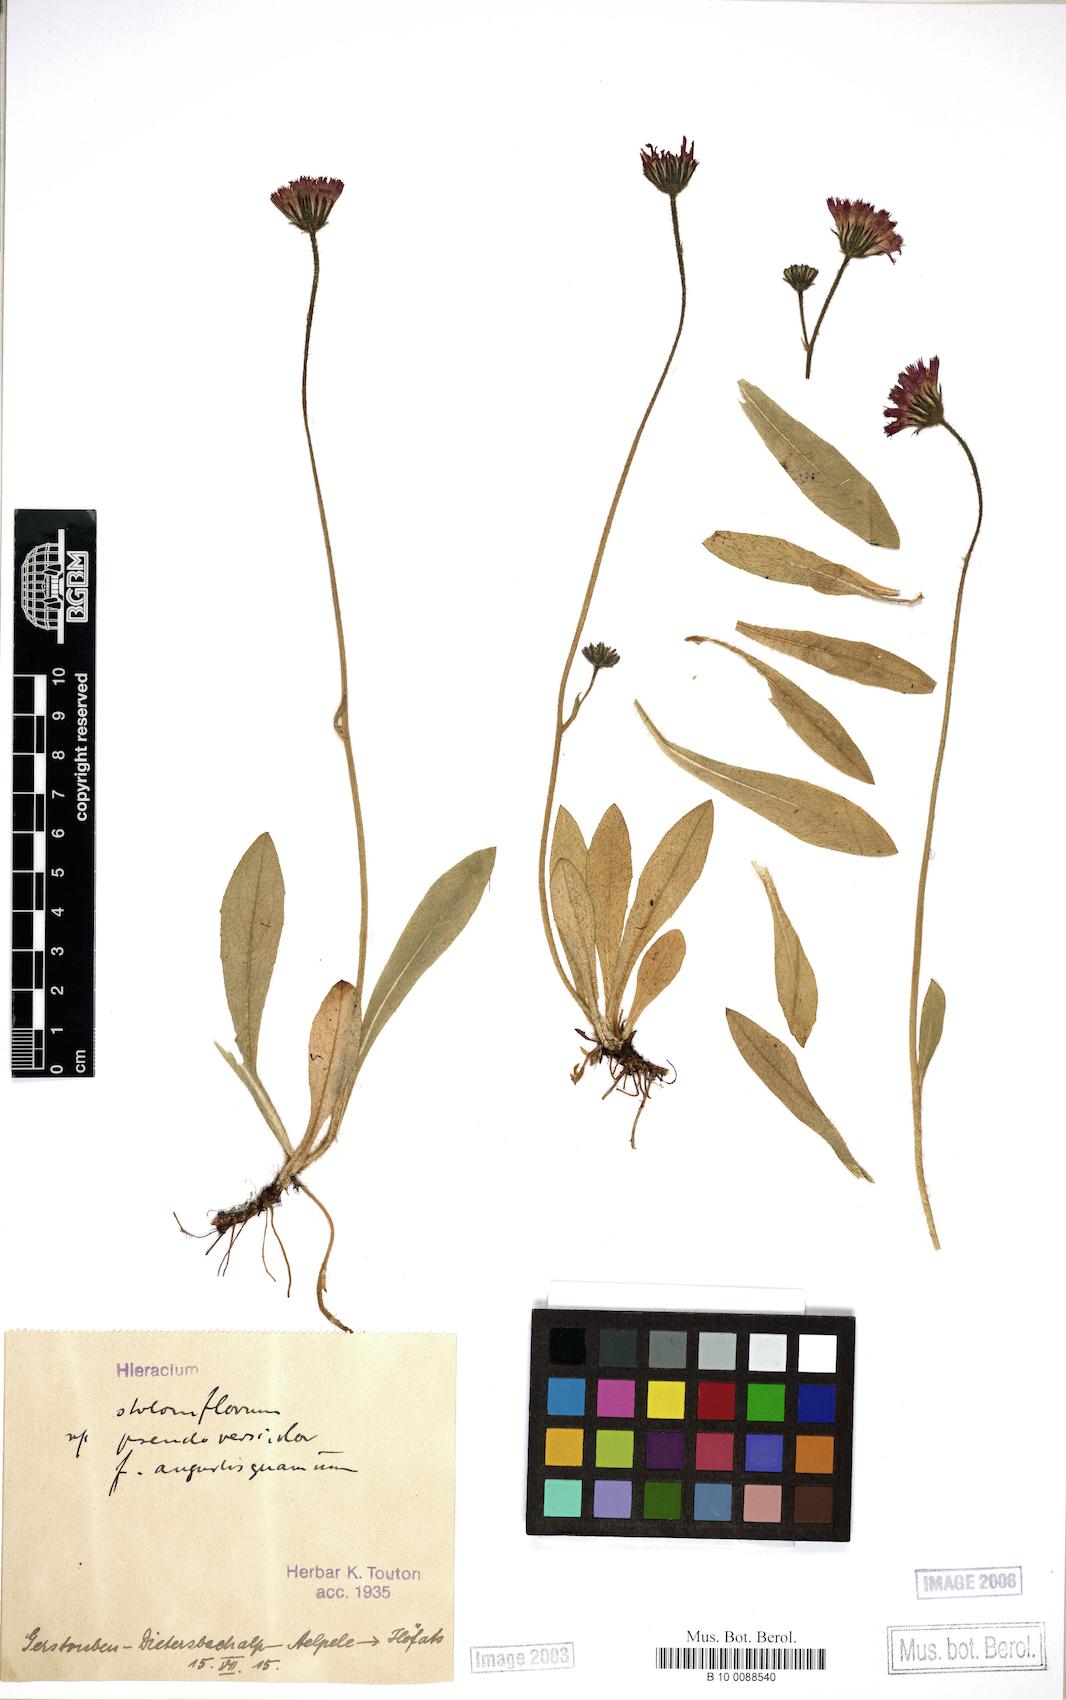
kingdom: Plantae
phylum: Tracheophyta
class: Magnoliopsida
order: Asterales
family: Asteraceae
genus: Hieracium
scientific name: Hieracium stoloniflorum
